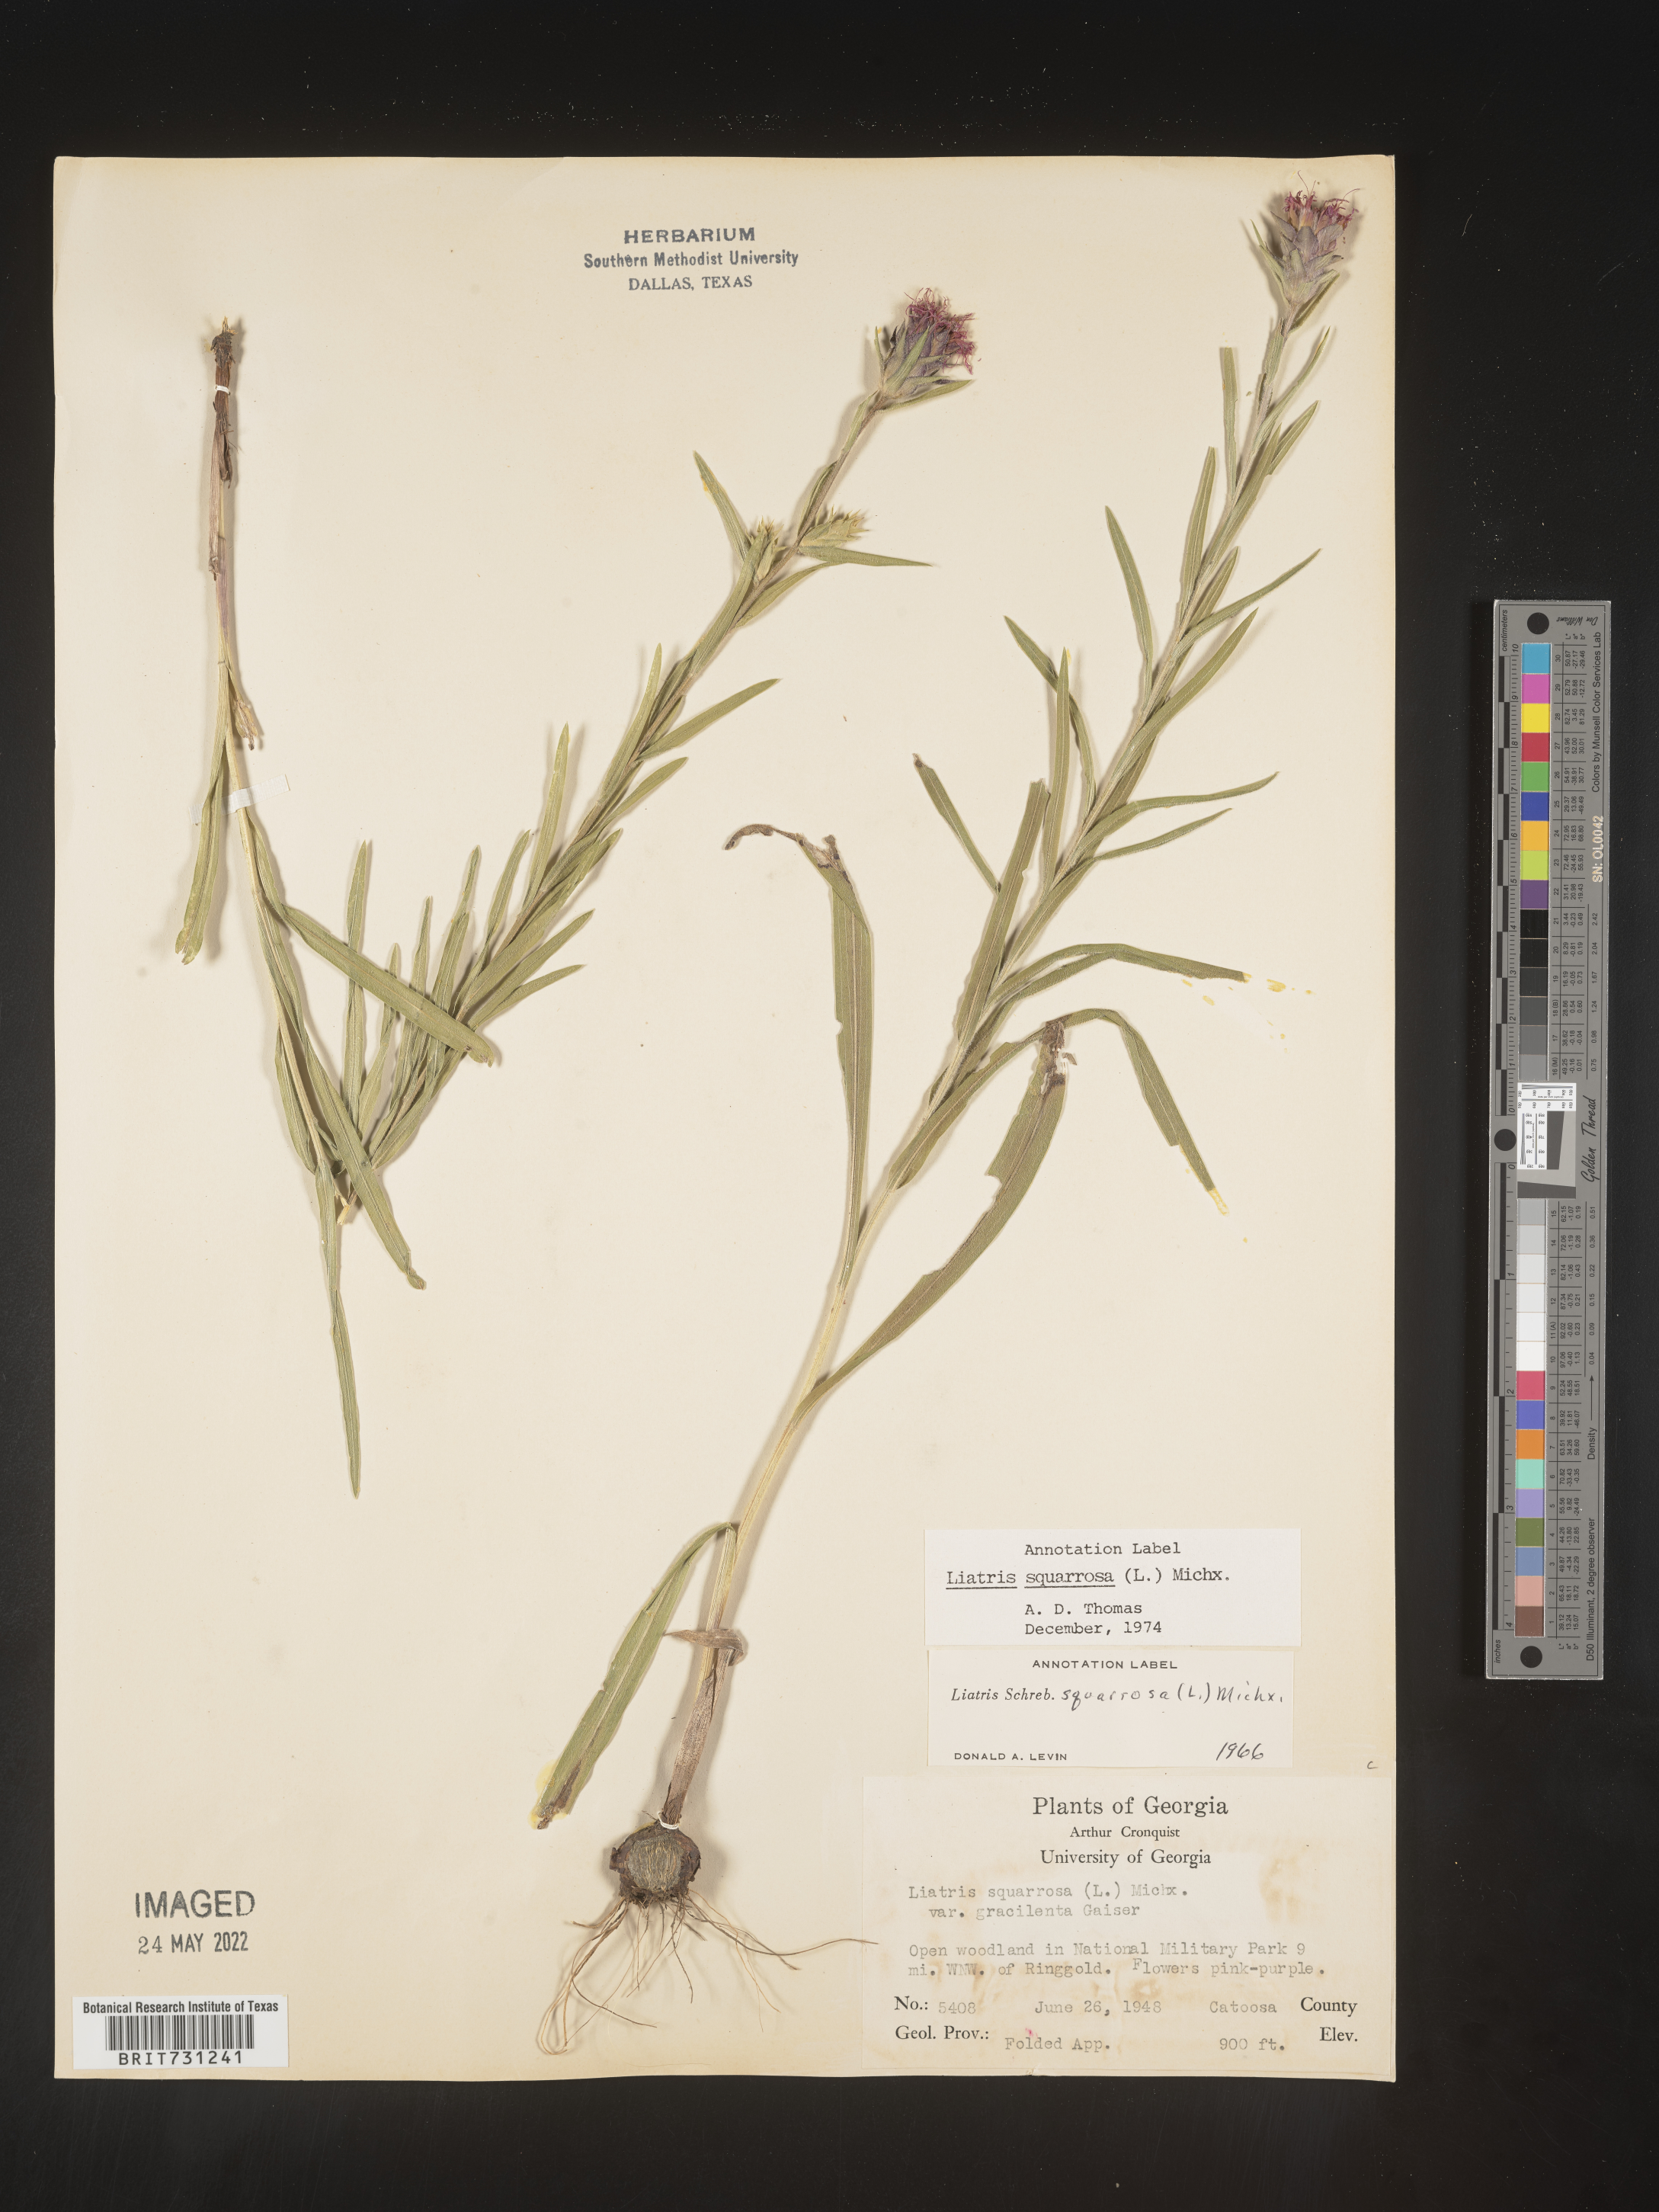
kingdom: Plantae
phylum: Tracheophyta
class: Magnoliopsida
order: Asterales
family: Asteraceae
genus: Liatris
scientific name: Liatris squarrosa
